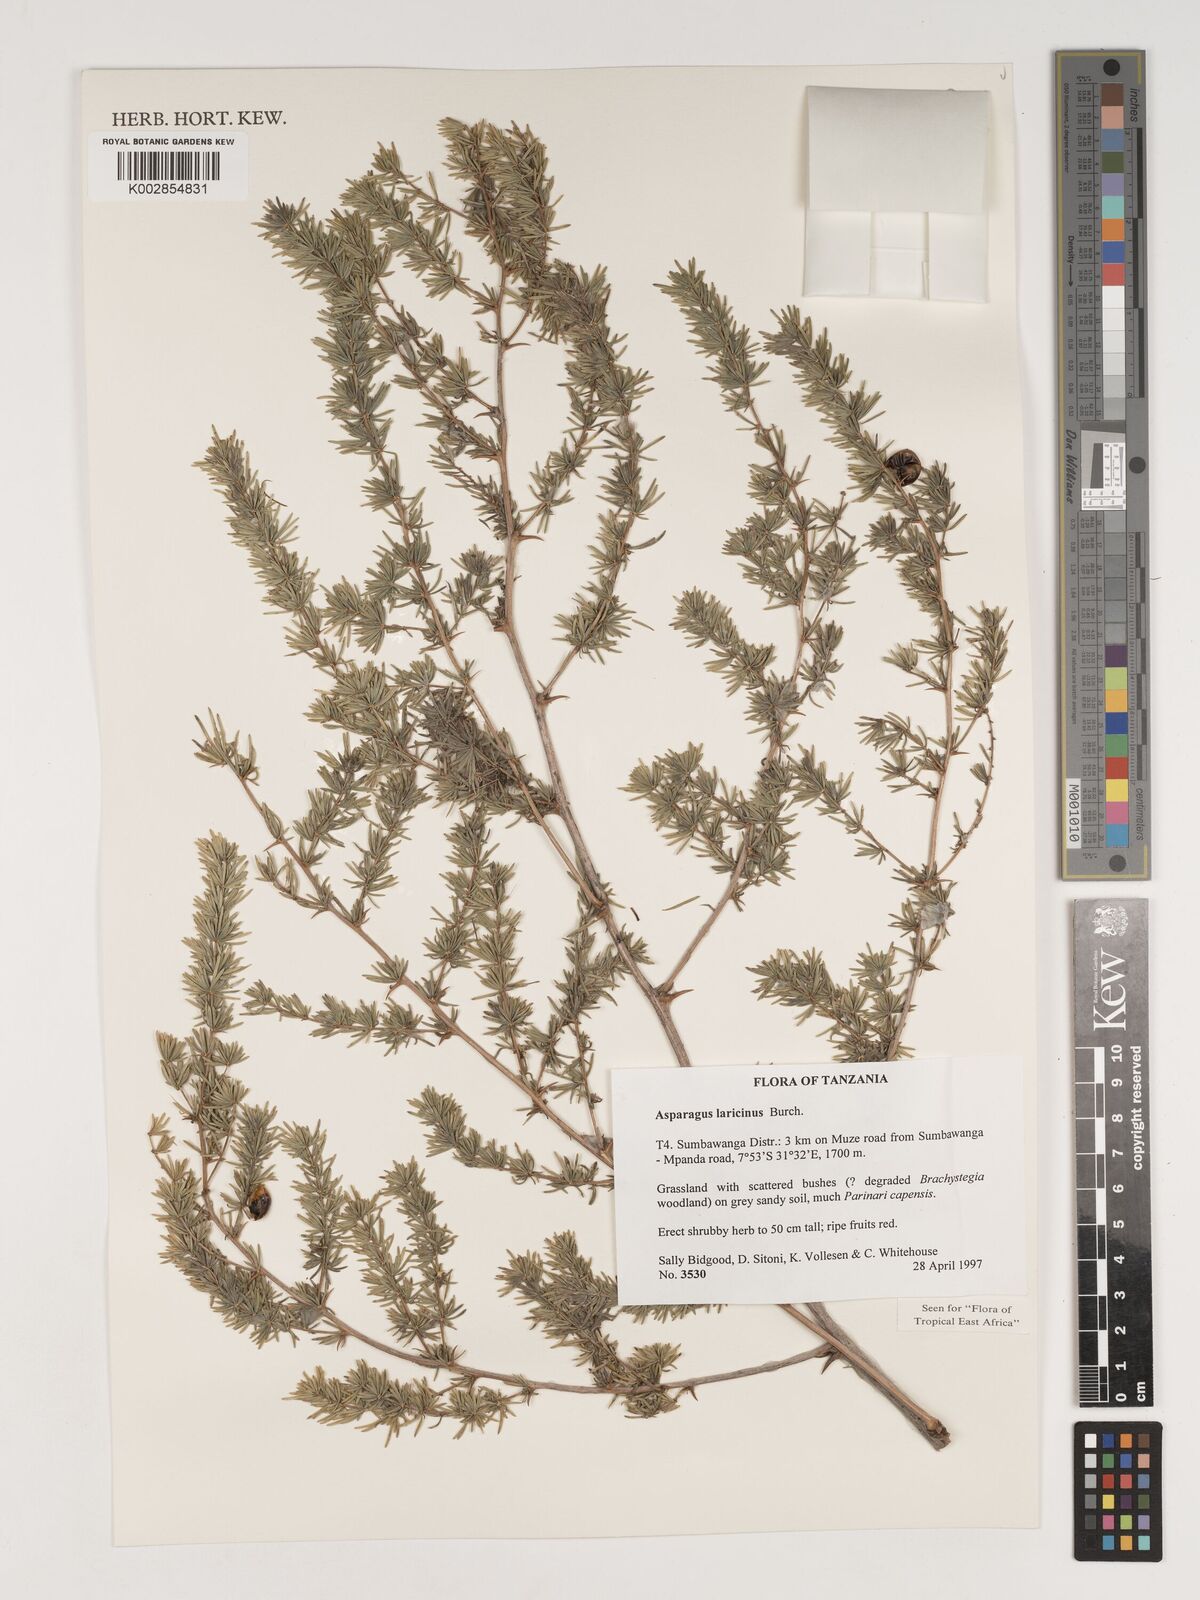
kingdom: Plantae
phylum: Tracheophyta
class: Liliopsida
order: Asparagales
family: Asparagaceae
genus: Asparagus
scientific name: Asparagus laricinus
